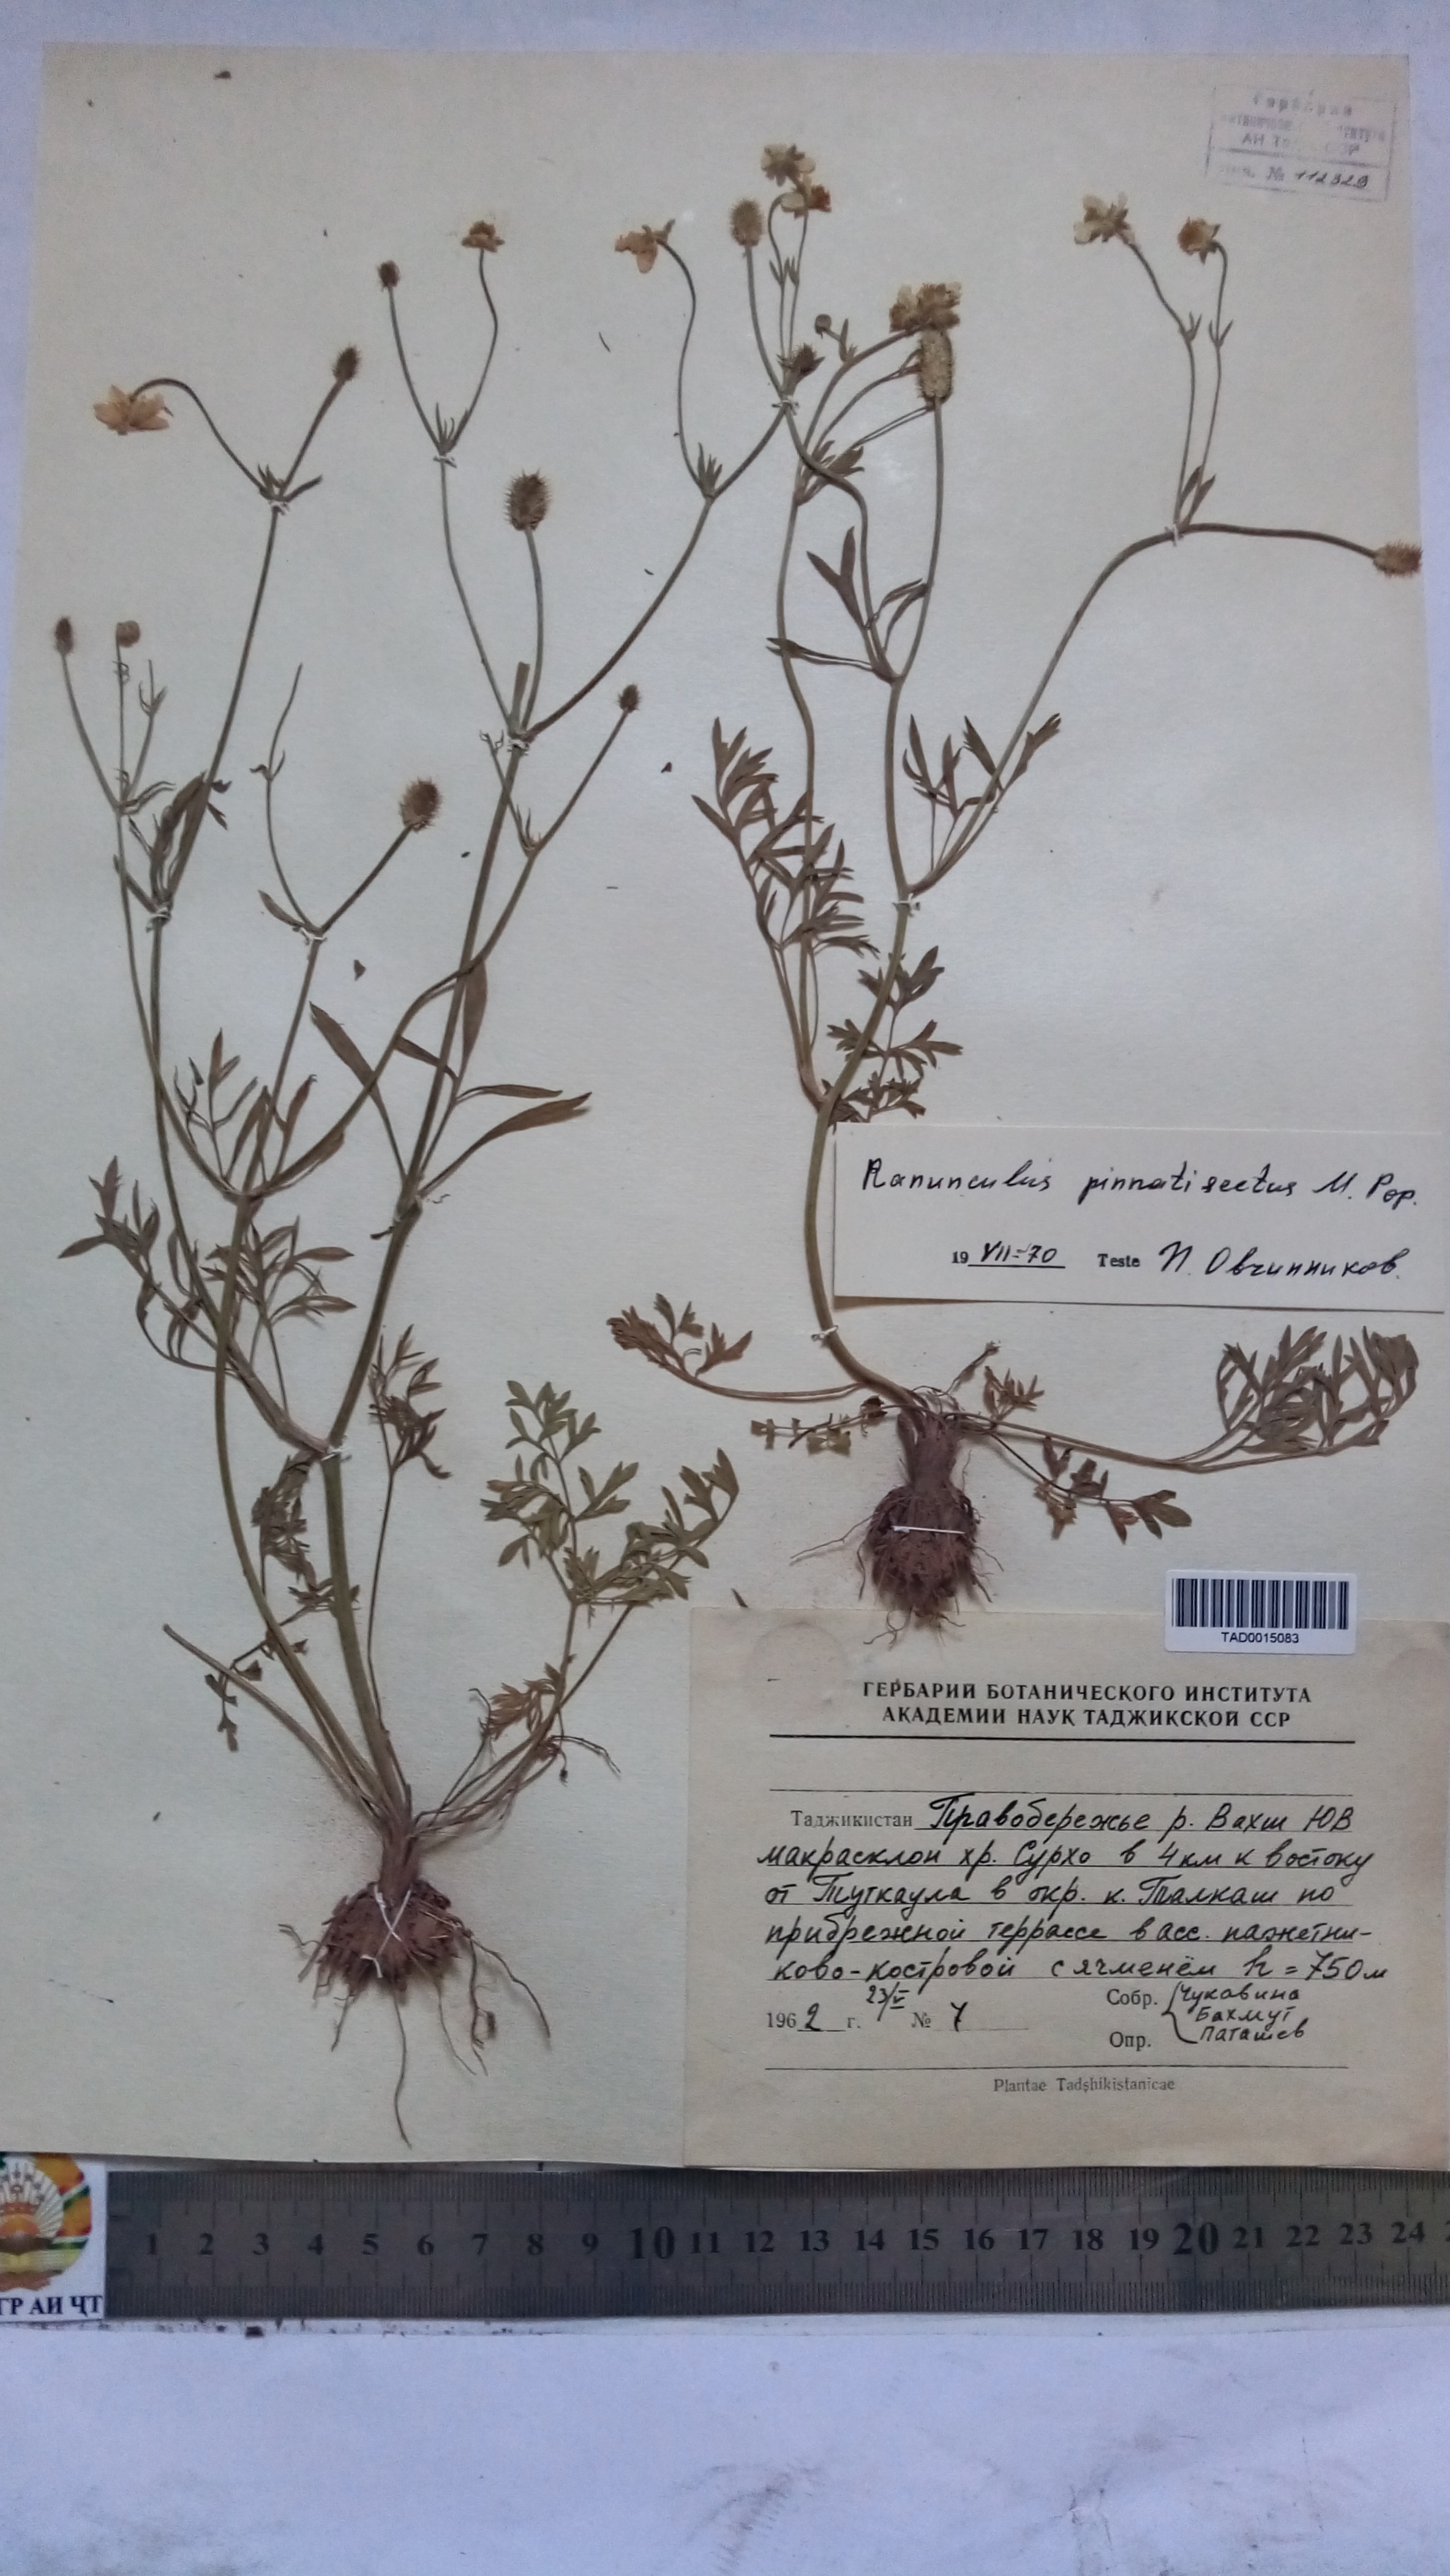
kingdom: Plantae
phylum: Tracheophyta
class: Magnoliopsida
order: Ranunculales
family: Ranunculaceae
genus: Ranunculus
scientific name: Ranunculus pinnatisectus
